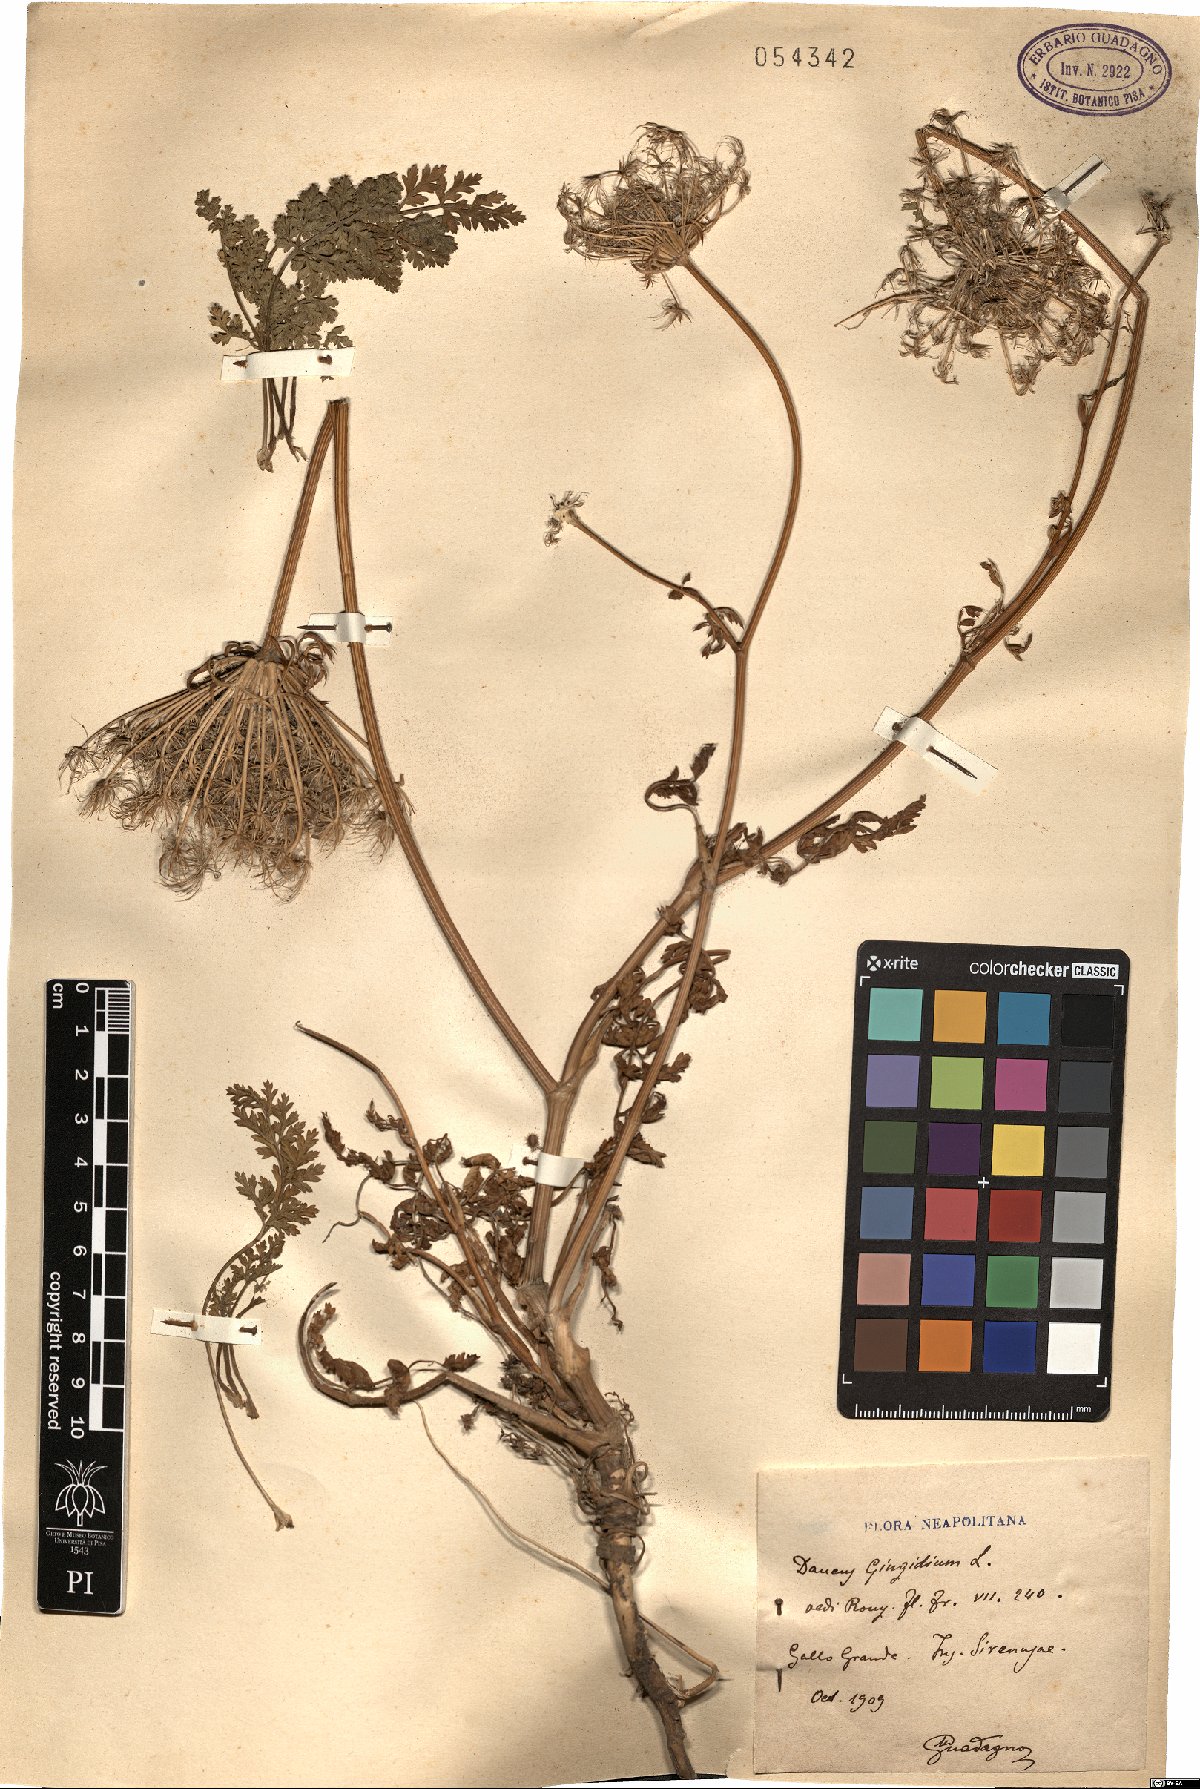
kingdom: Plantae
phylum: Tracheophyta
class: Magnoliopsida
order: Apiales
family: Apiaceae
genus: Daucus
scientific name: Daucus carota
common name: Wild carrot
